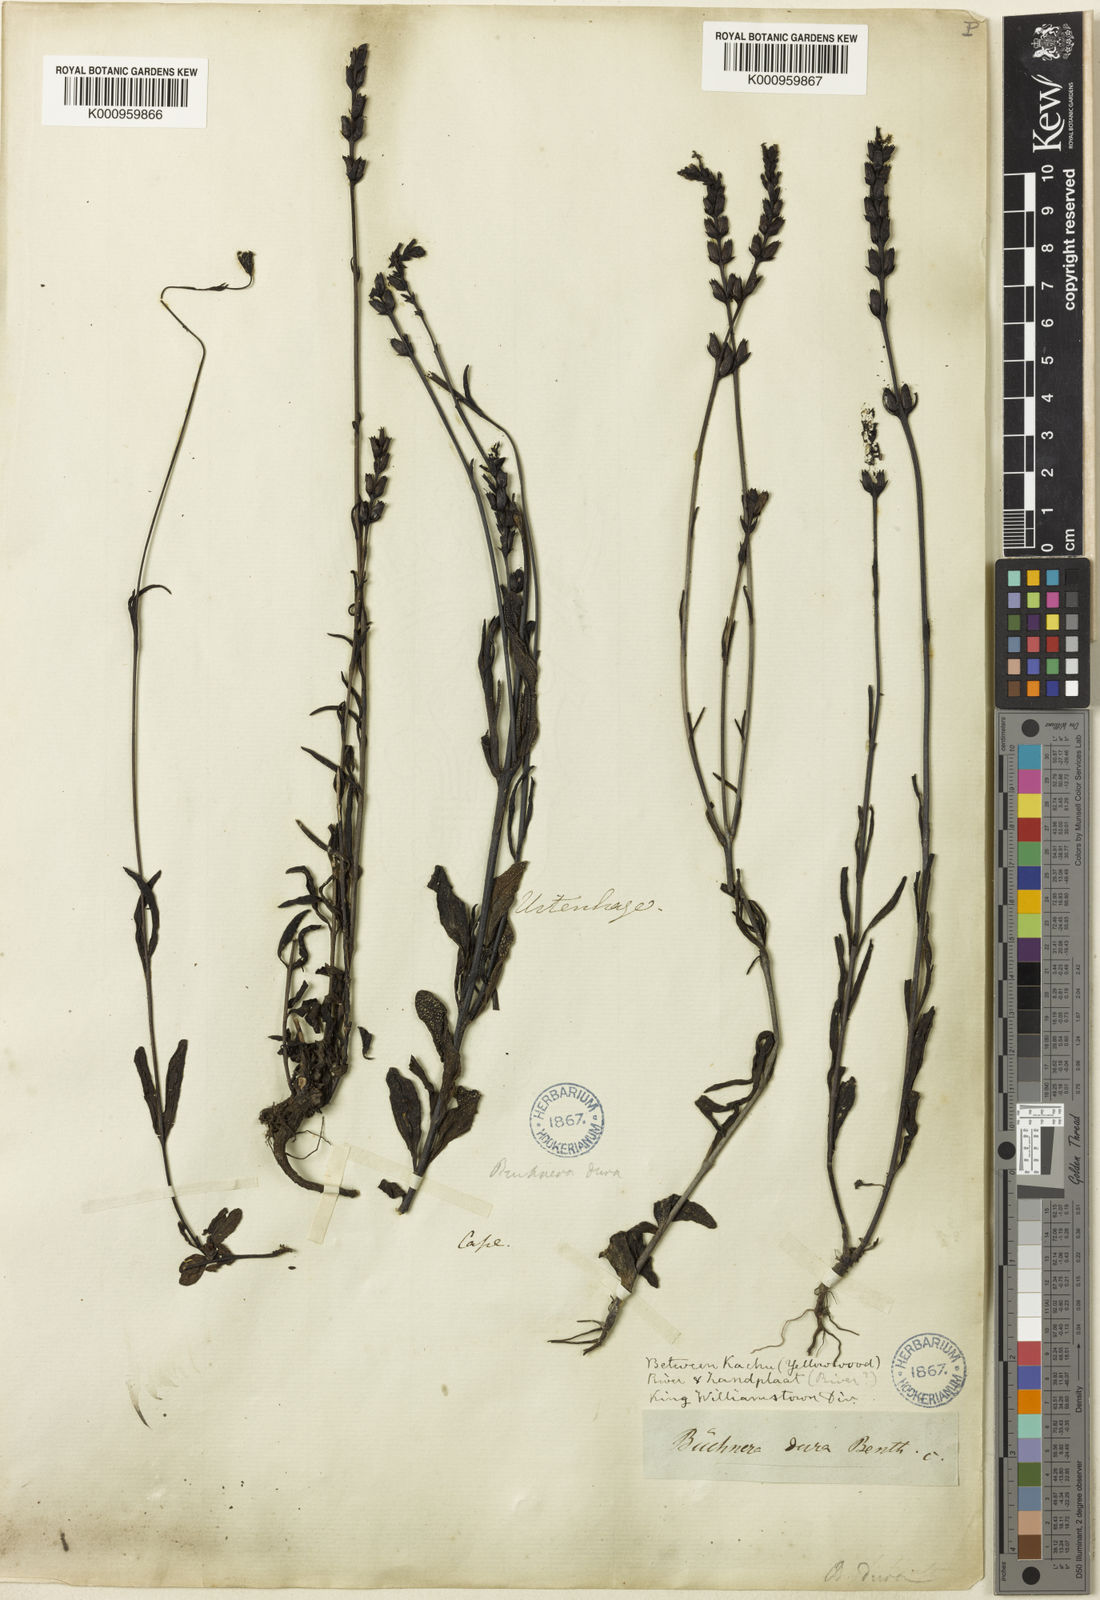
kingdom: Plantae
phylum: Tracheophyta
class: Magnoliopsida
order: Lamiales
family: Orobanchaceae
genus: Buchnera
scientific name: Buchnera dura
